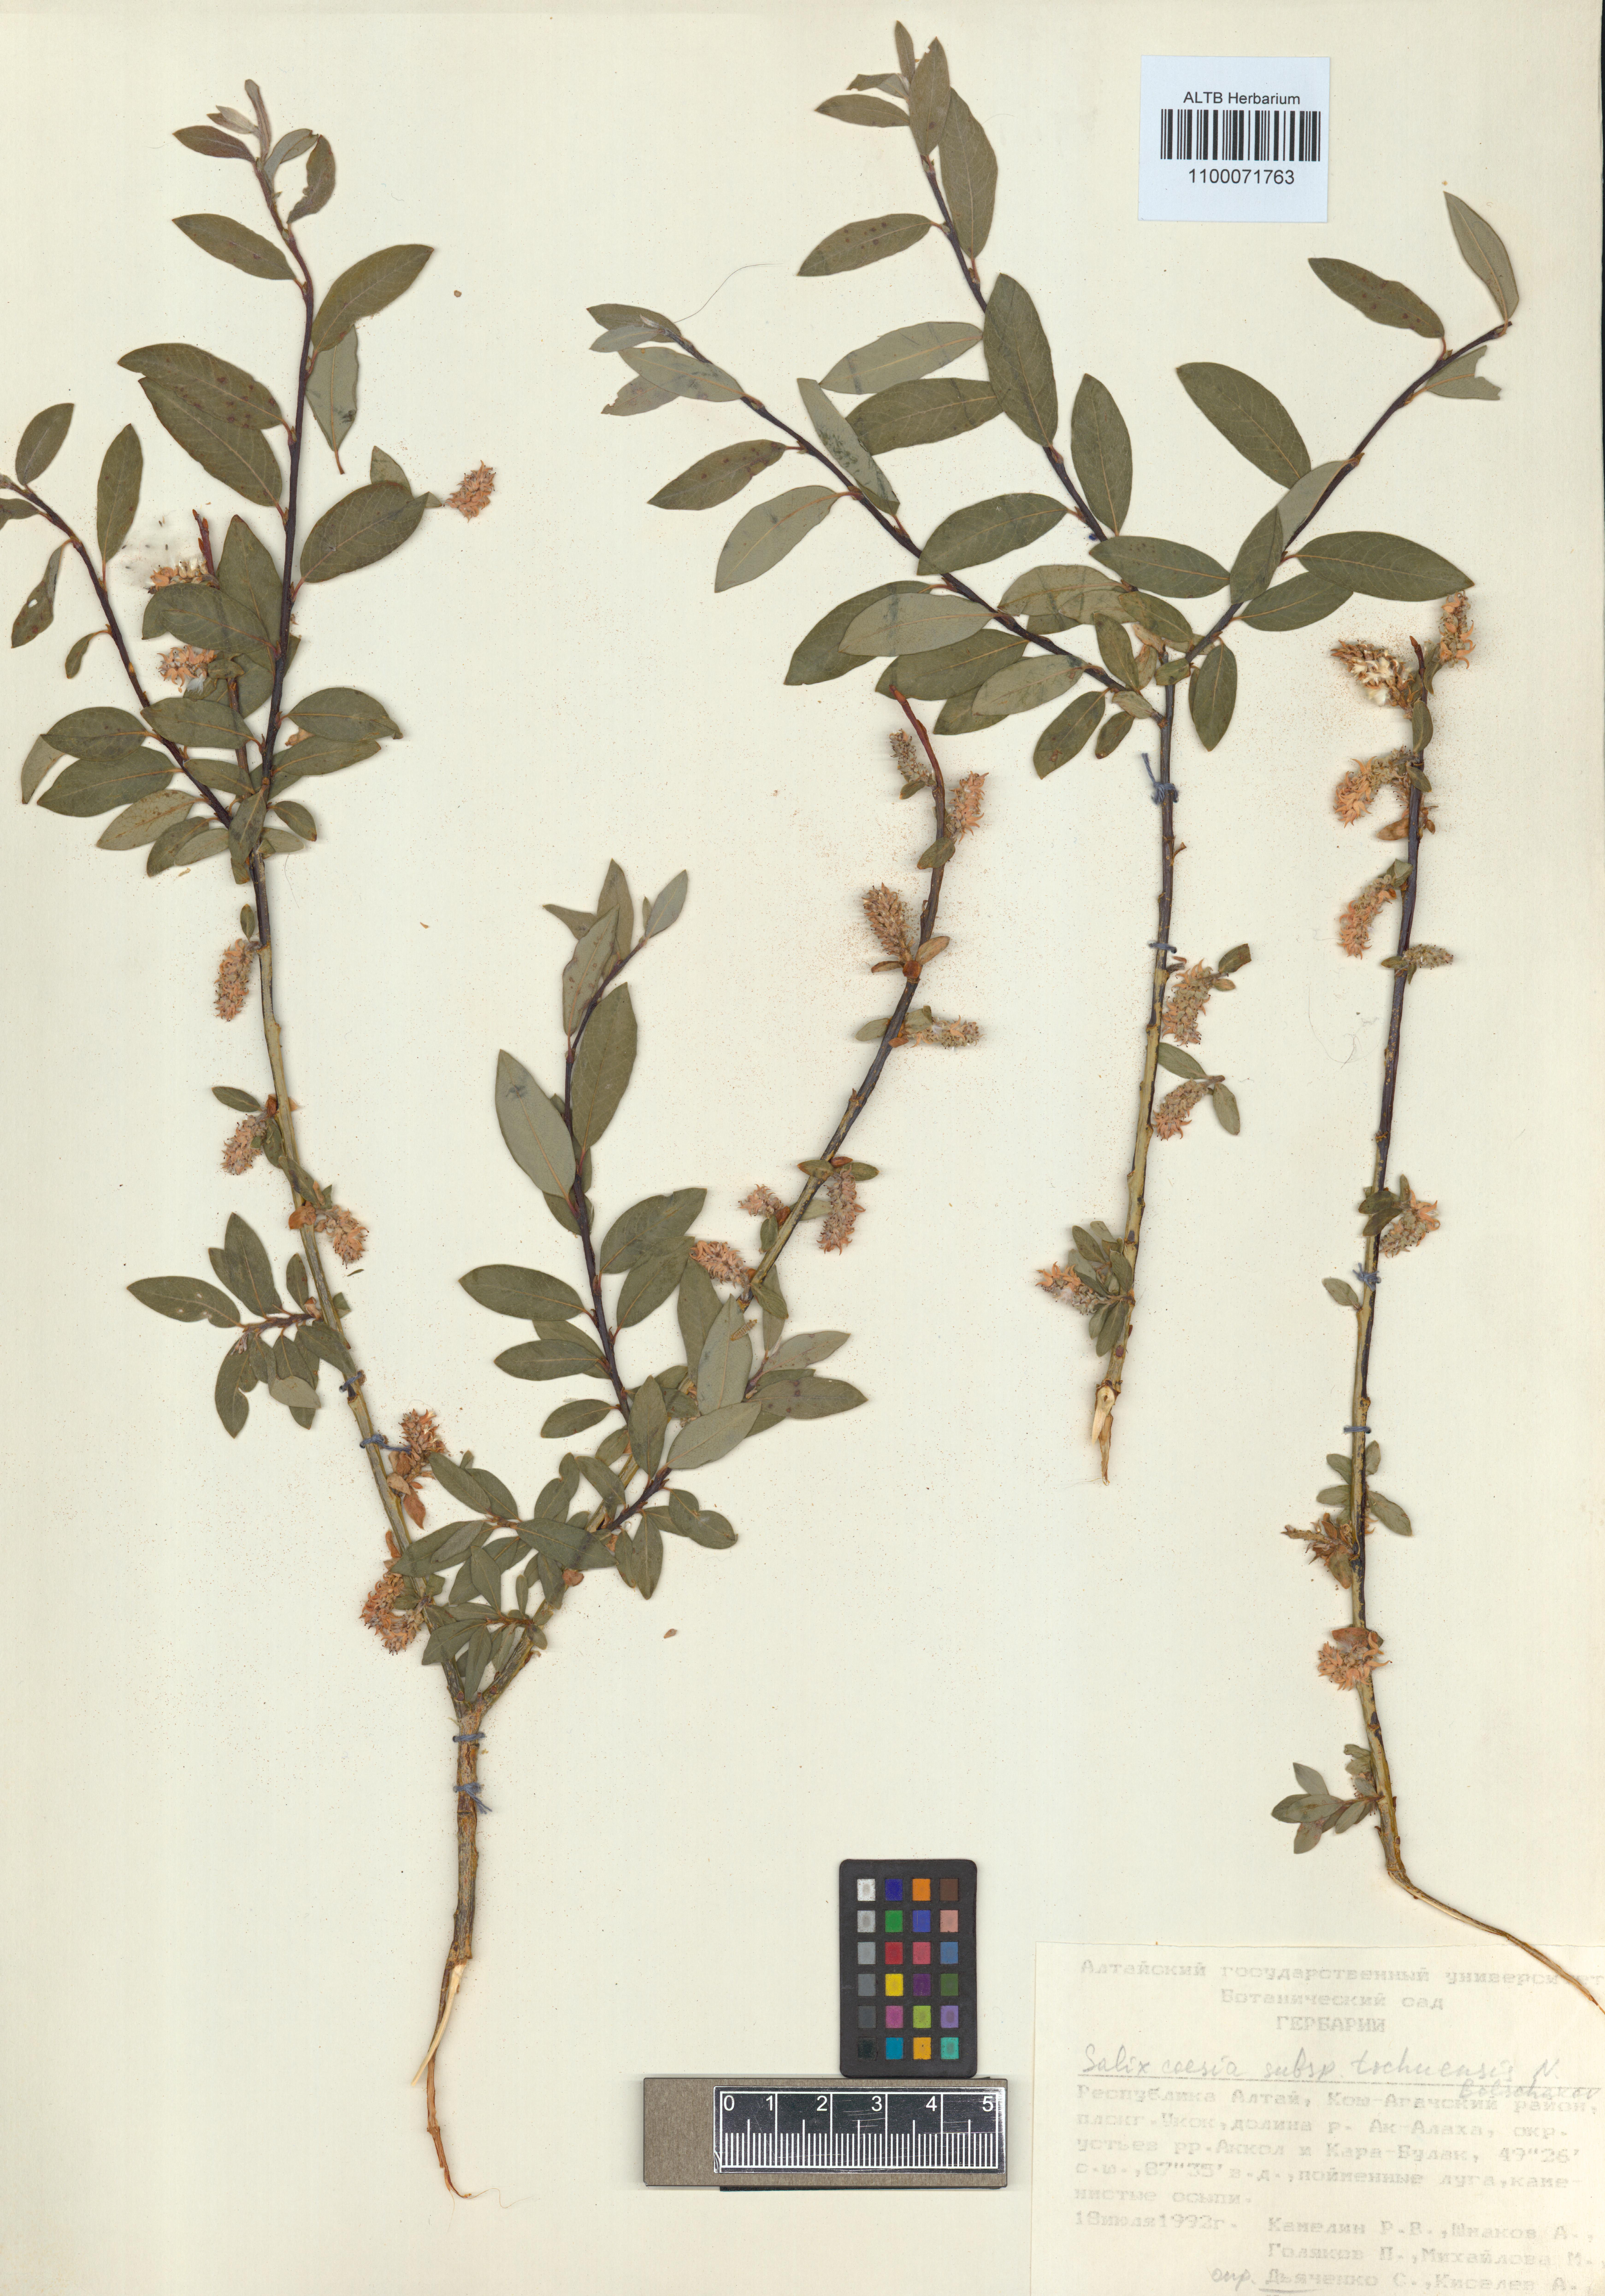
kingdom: Plantae
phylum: Tracheophyta
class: Magnoliopsida
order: Malpighiales
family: Salicaceae
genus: Salix
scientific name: Salix caesia
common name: Blue willow
